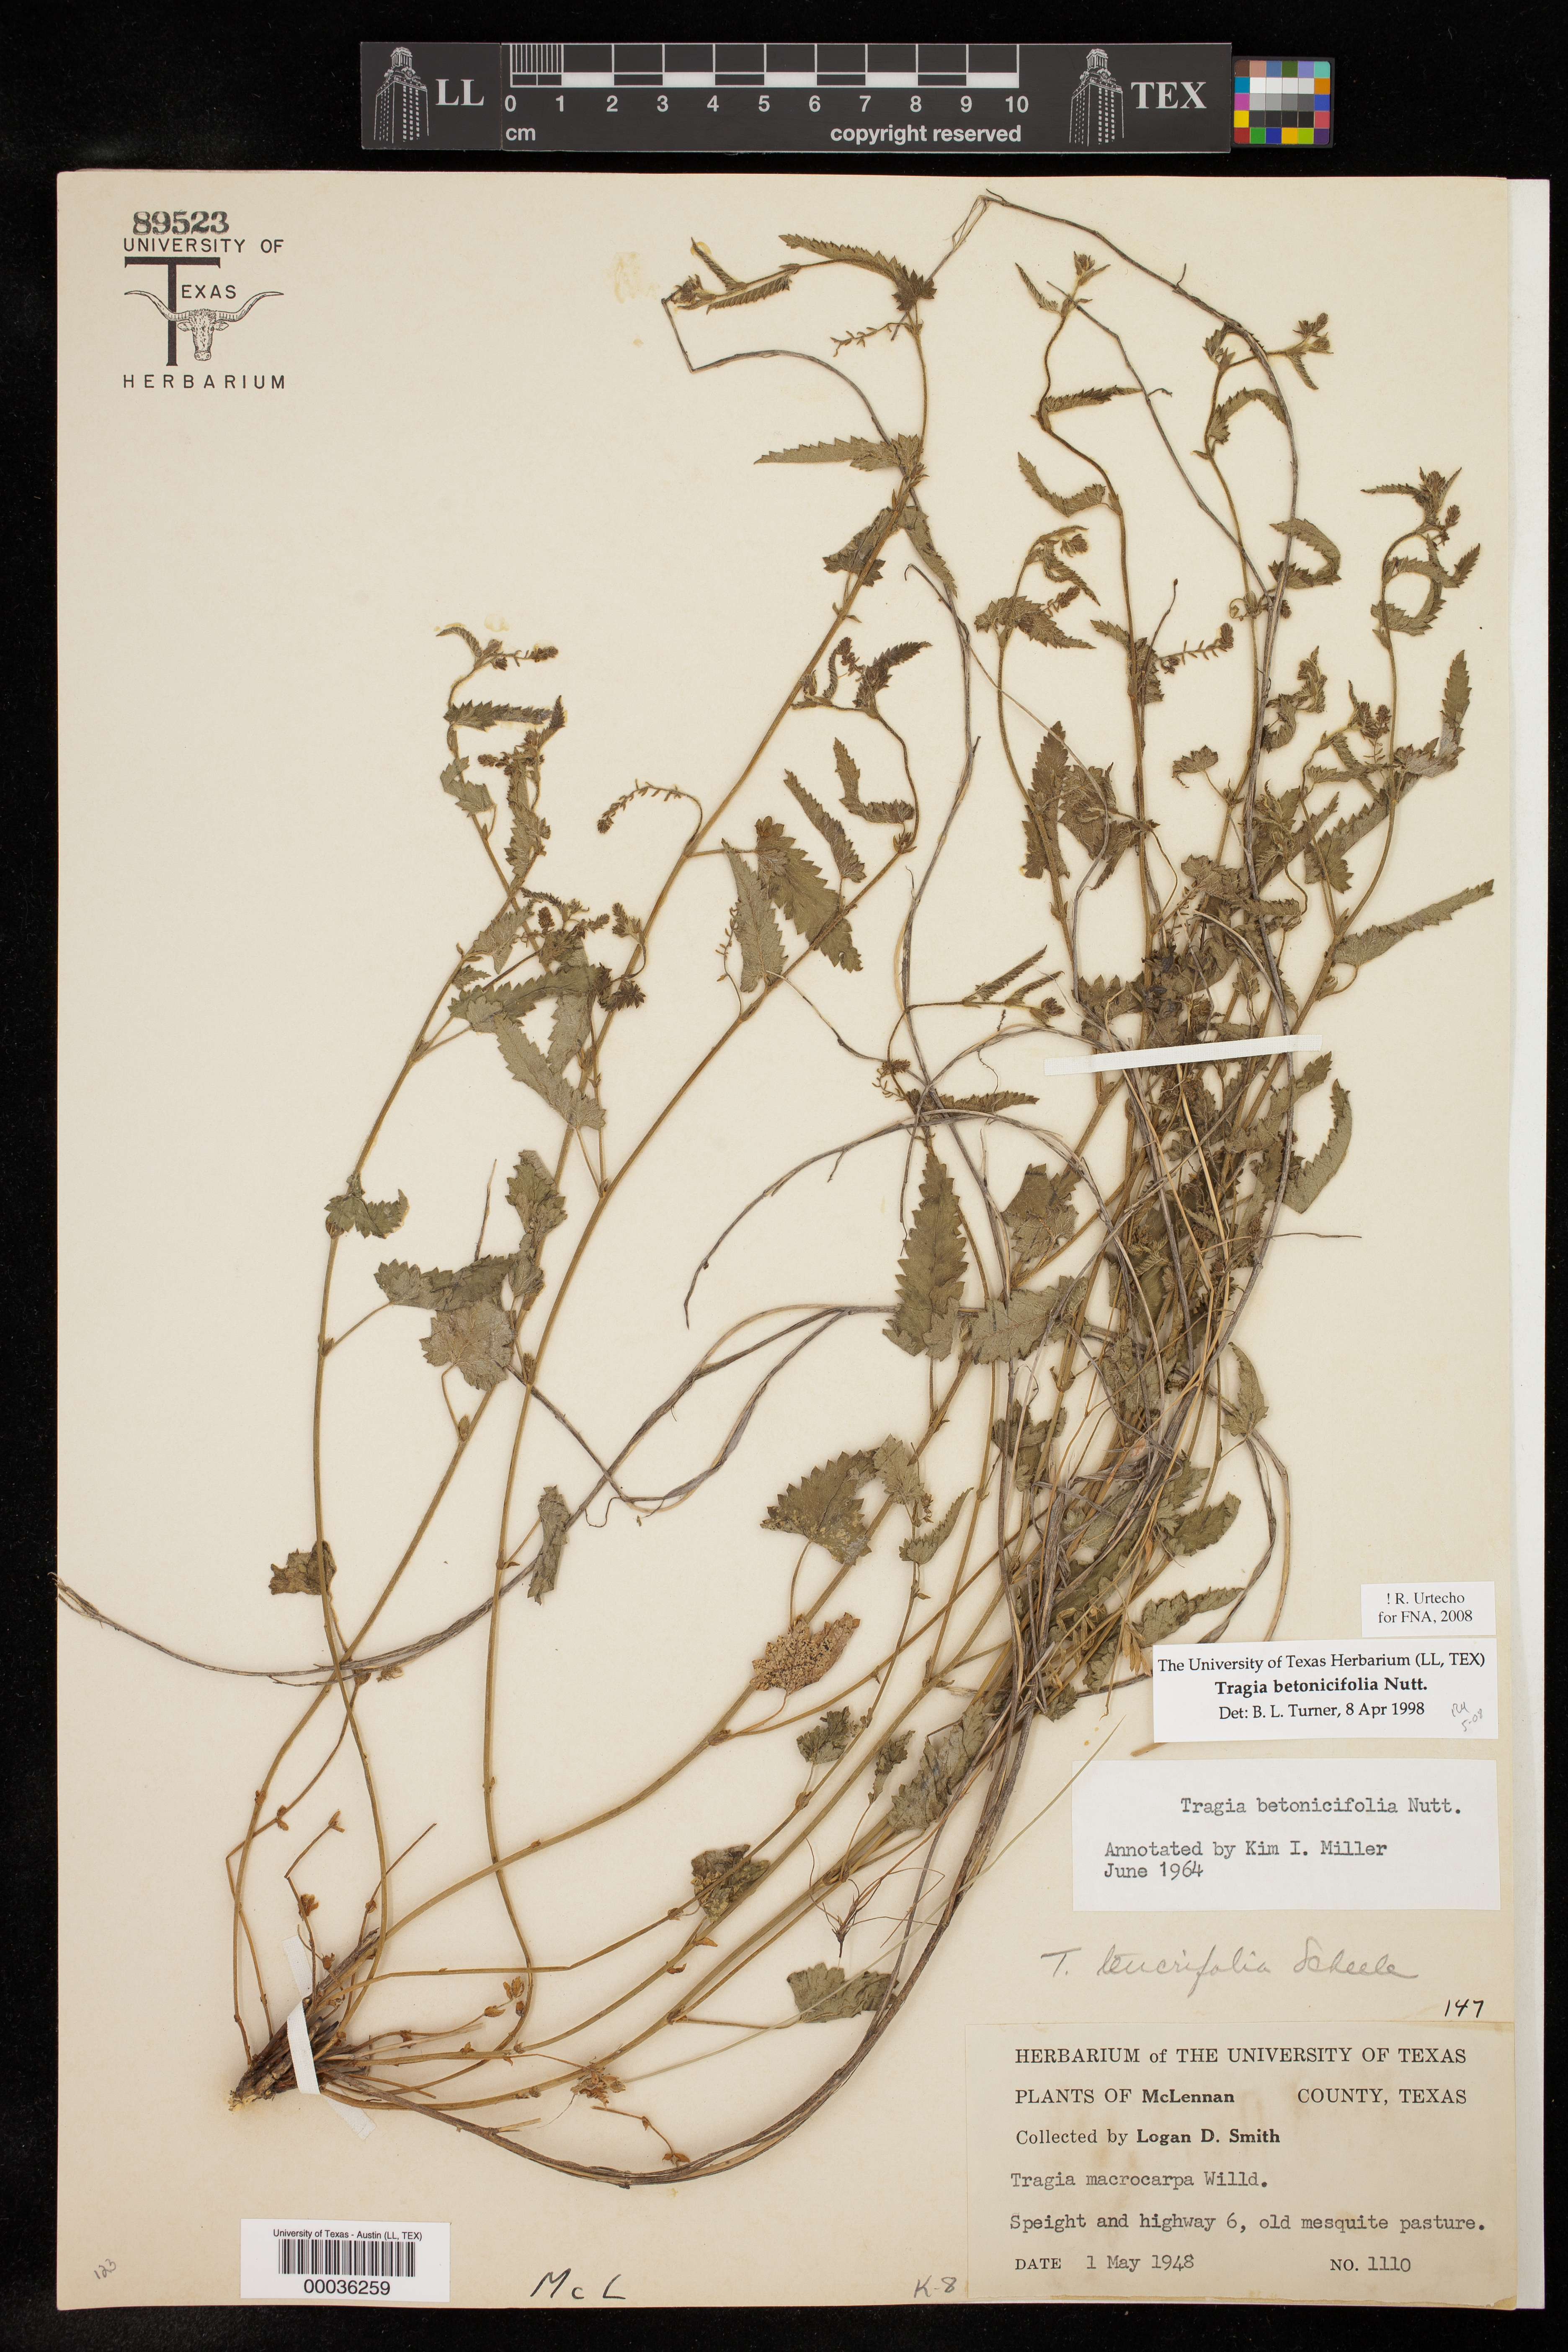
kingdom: Plantae
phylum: Tracheophyta
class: Magnoliopsida
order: Malpighiales
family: Euphorbiaceae
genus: Tragia
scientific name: Tragia betonicifolia
